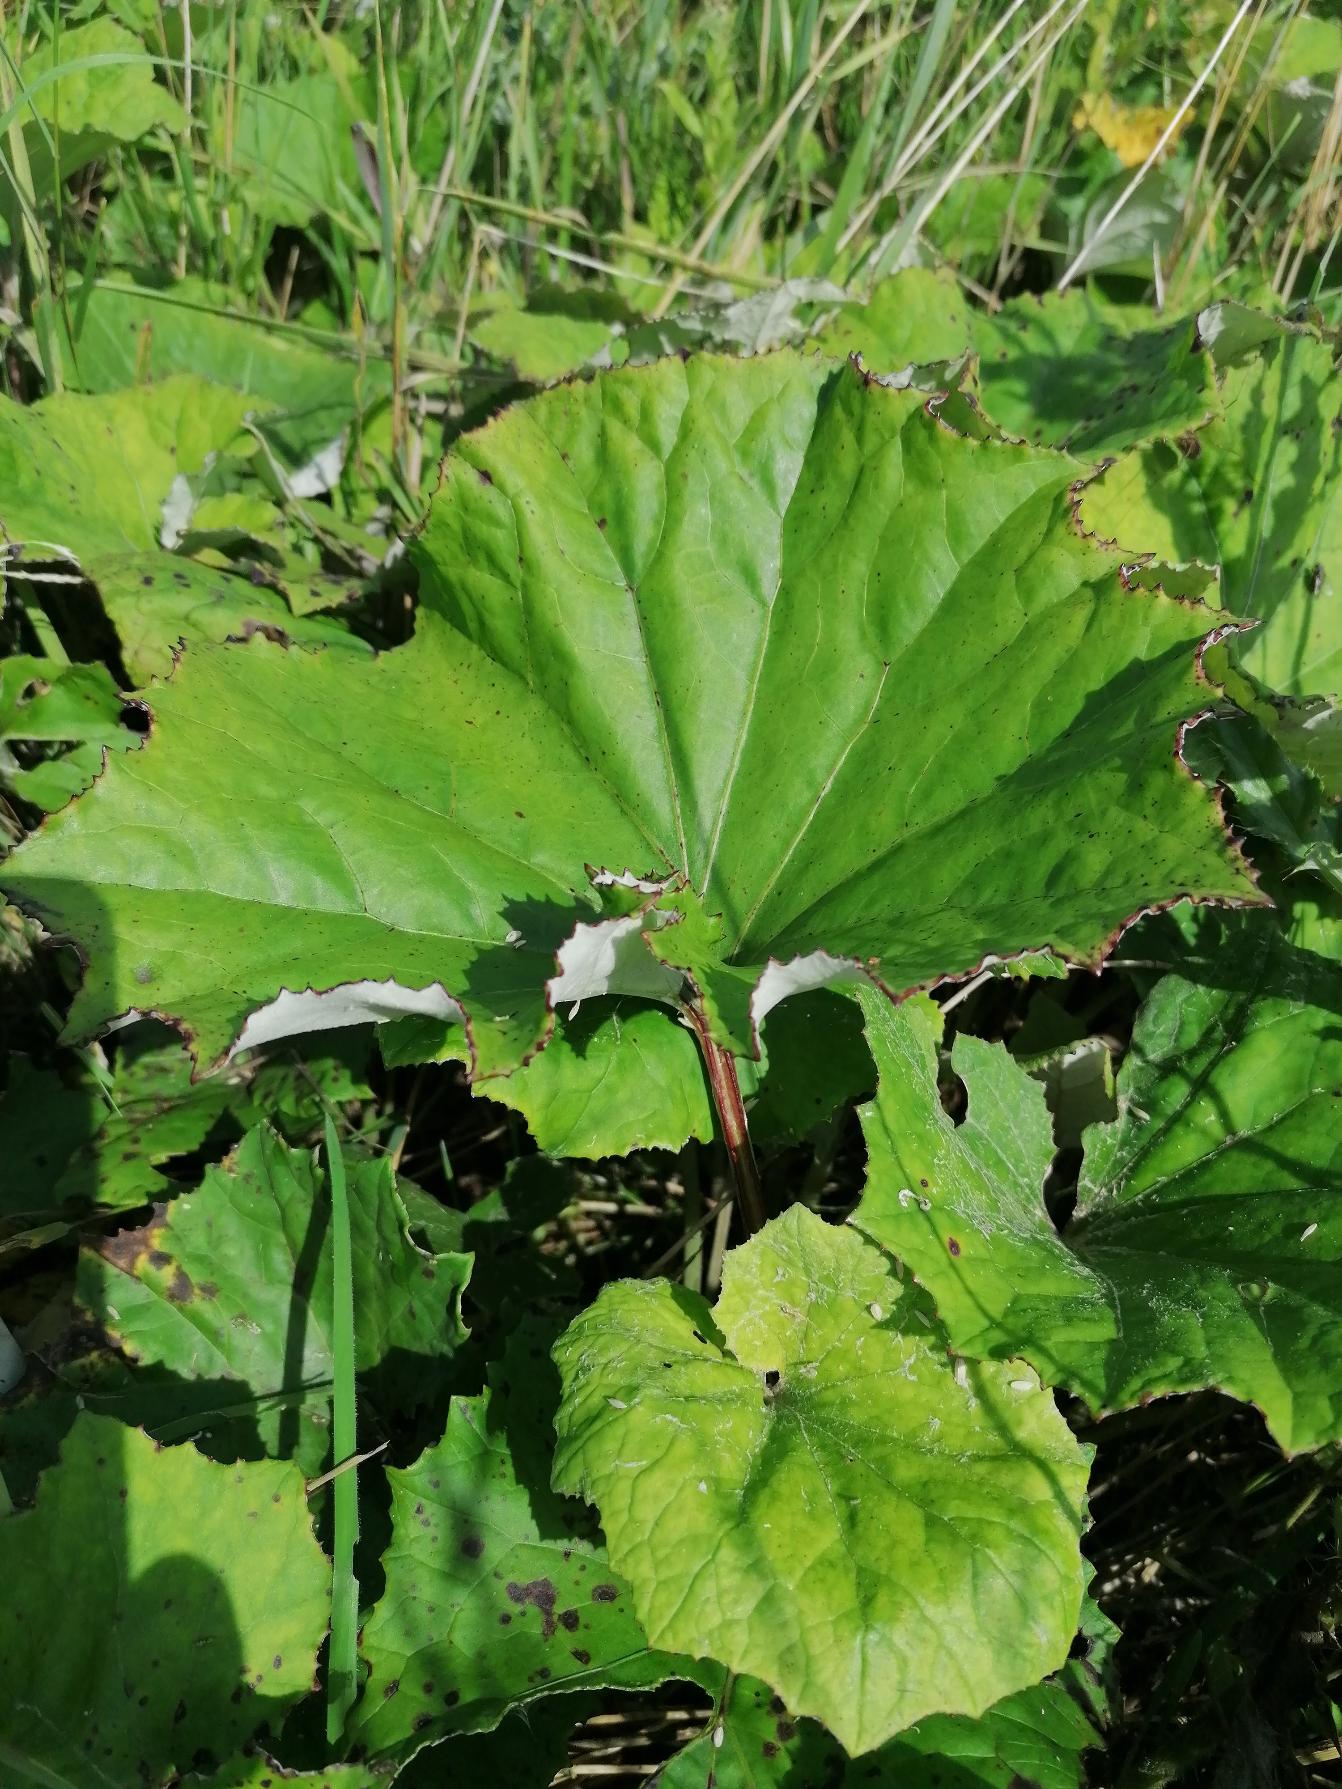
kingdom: Plantae
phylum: Tracheophyta
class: Magnoliopsida
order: Asterales
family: Asteraceae
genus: Tussilago
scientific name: Tussilago farfara
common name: Følfod
